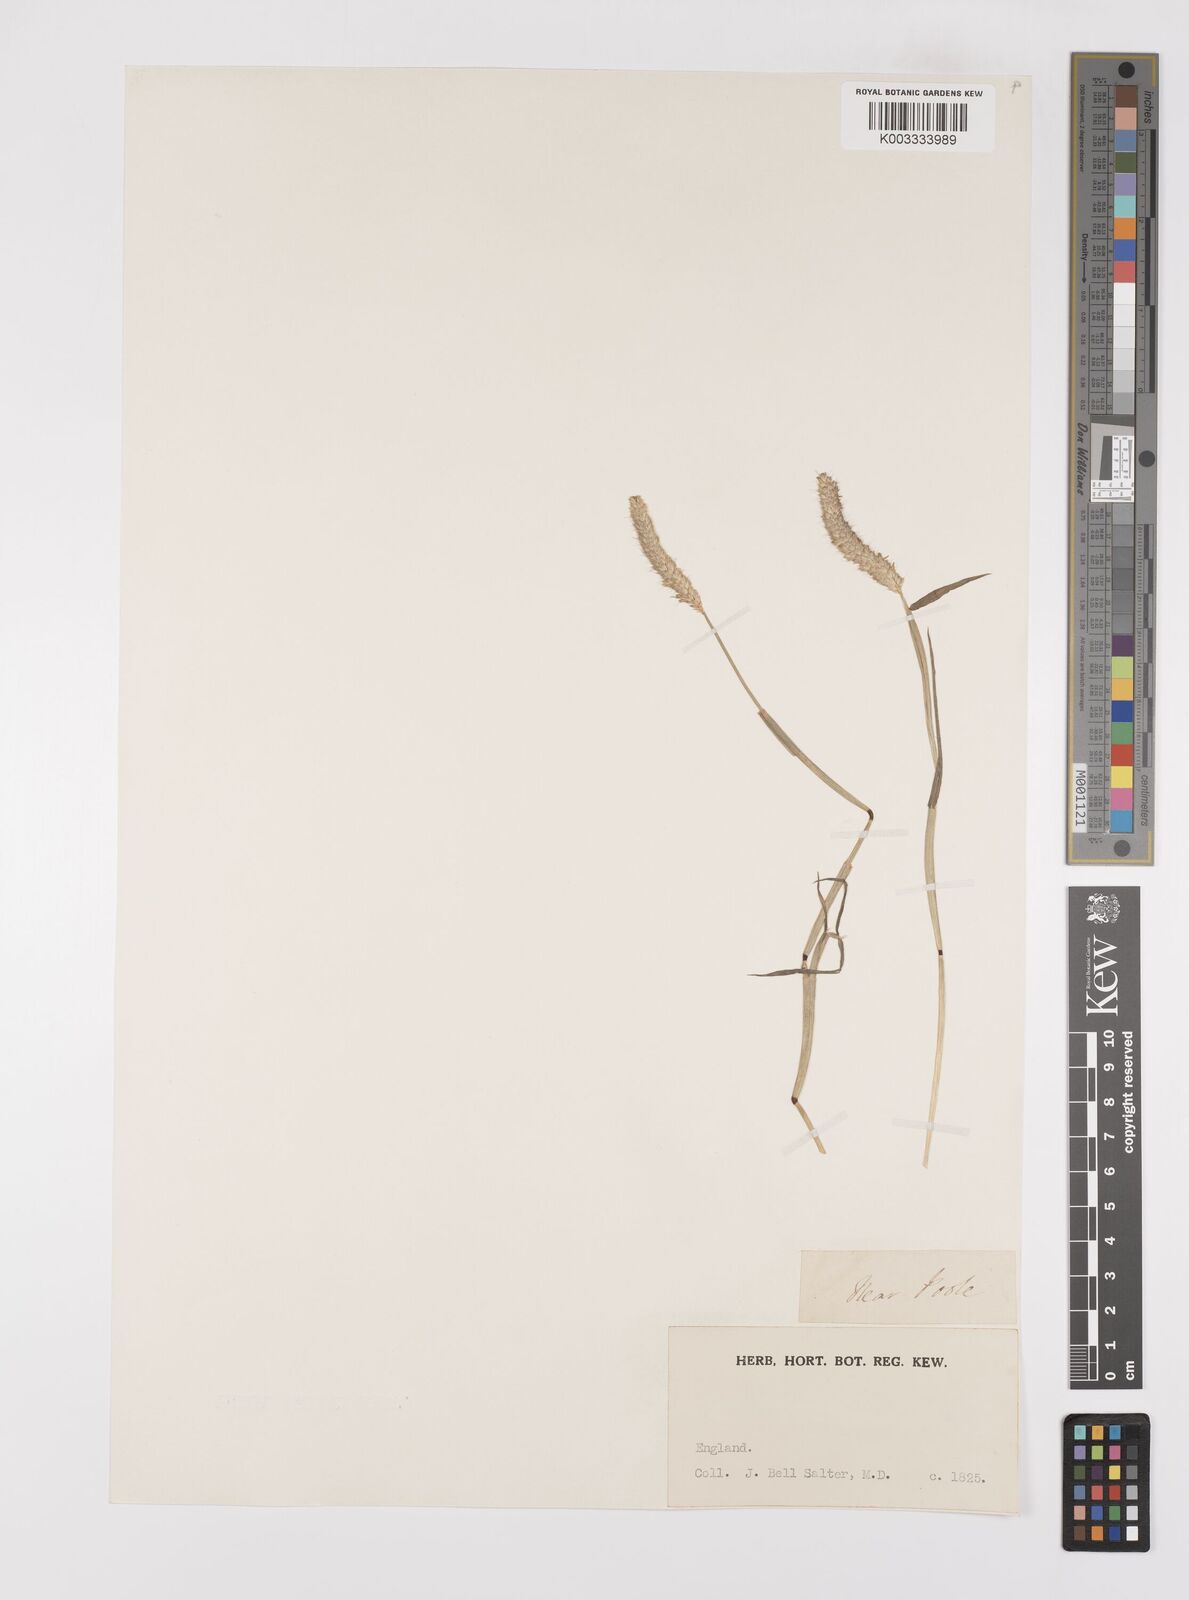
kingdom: Plantae
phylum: Tracheophyta
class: Liliopsida
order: Poales
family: Poaceae
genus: Alopecurus
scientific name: Alopecurus geniculatus
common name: Water foxtail
